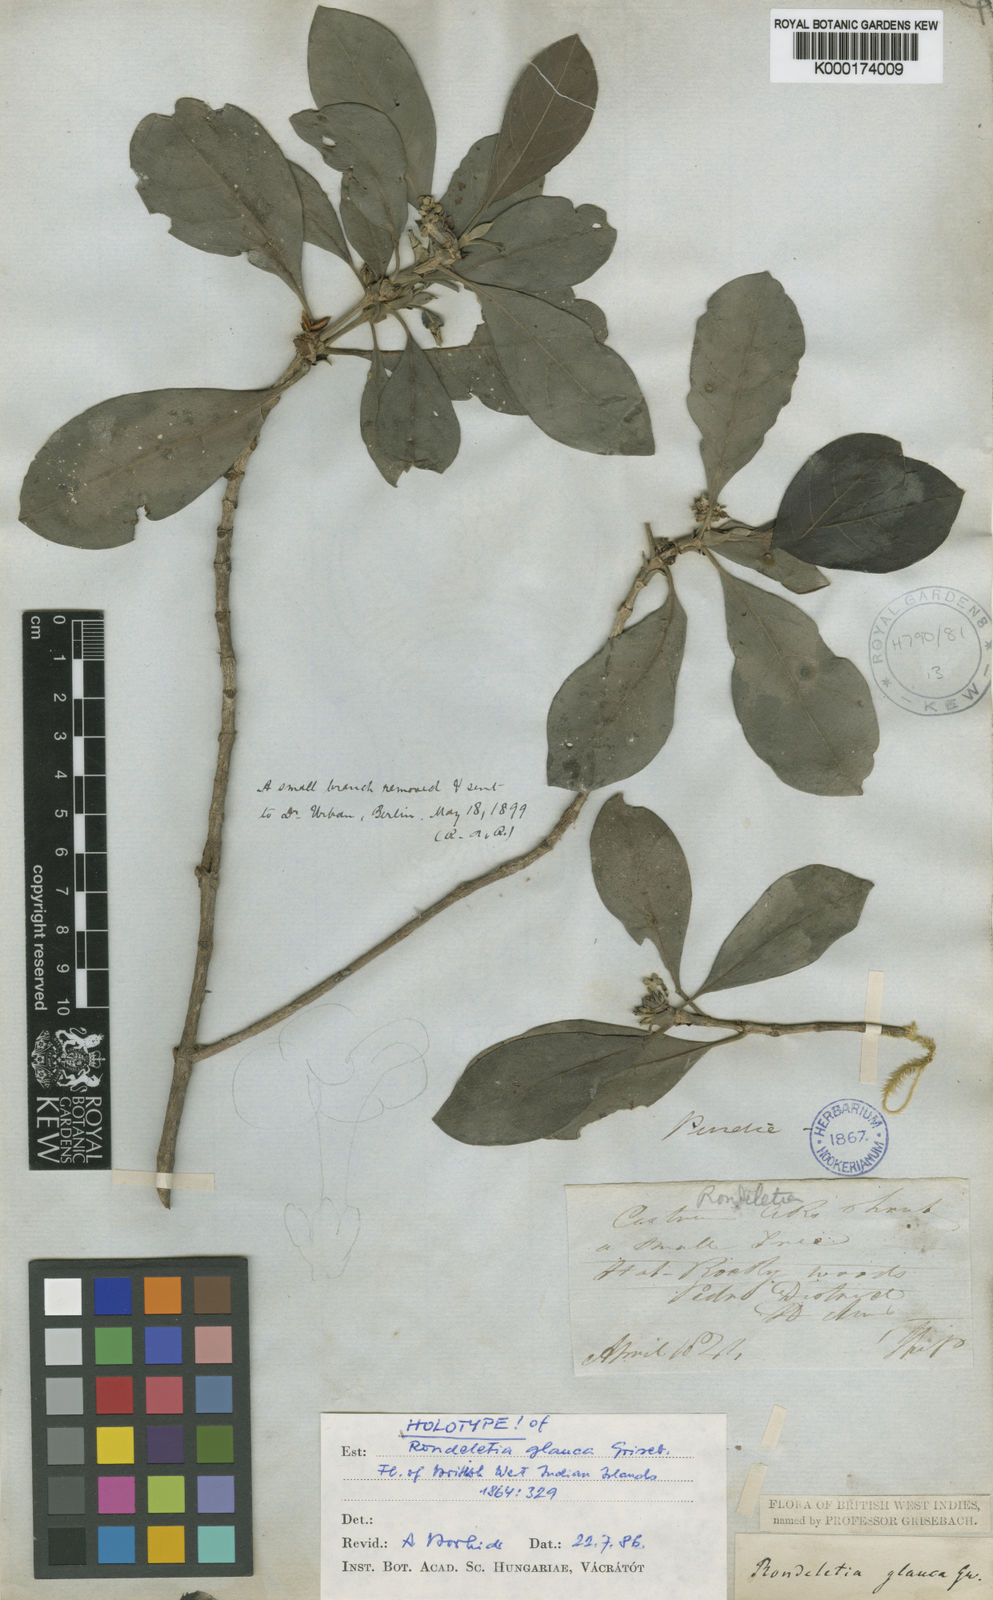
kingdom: Plantae
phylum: Tracheophyta
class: Magnoliopsida
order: Gentianales
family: Rubiaceae
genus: Rondeletia
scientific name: Rondeletia glauca
